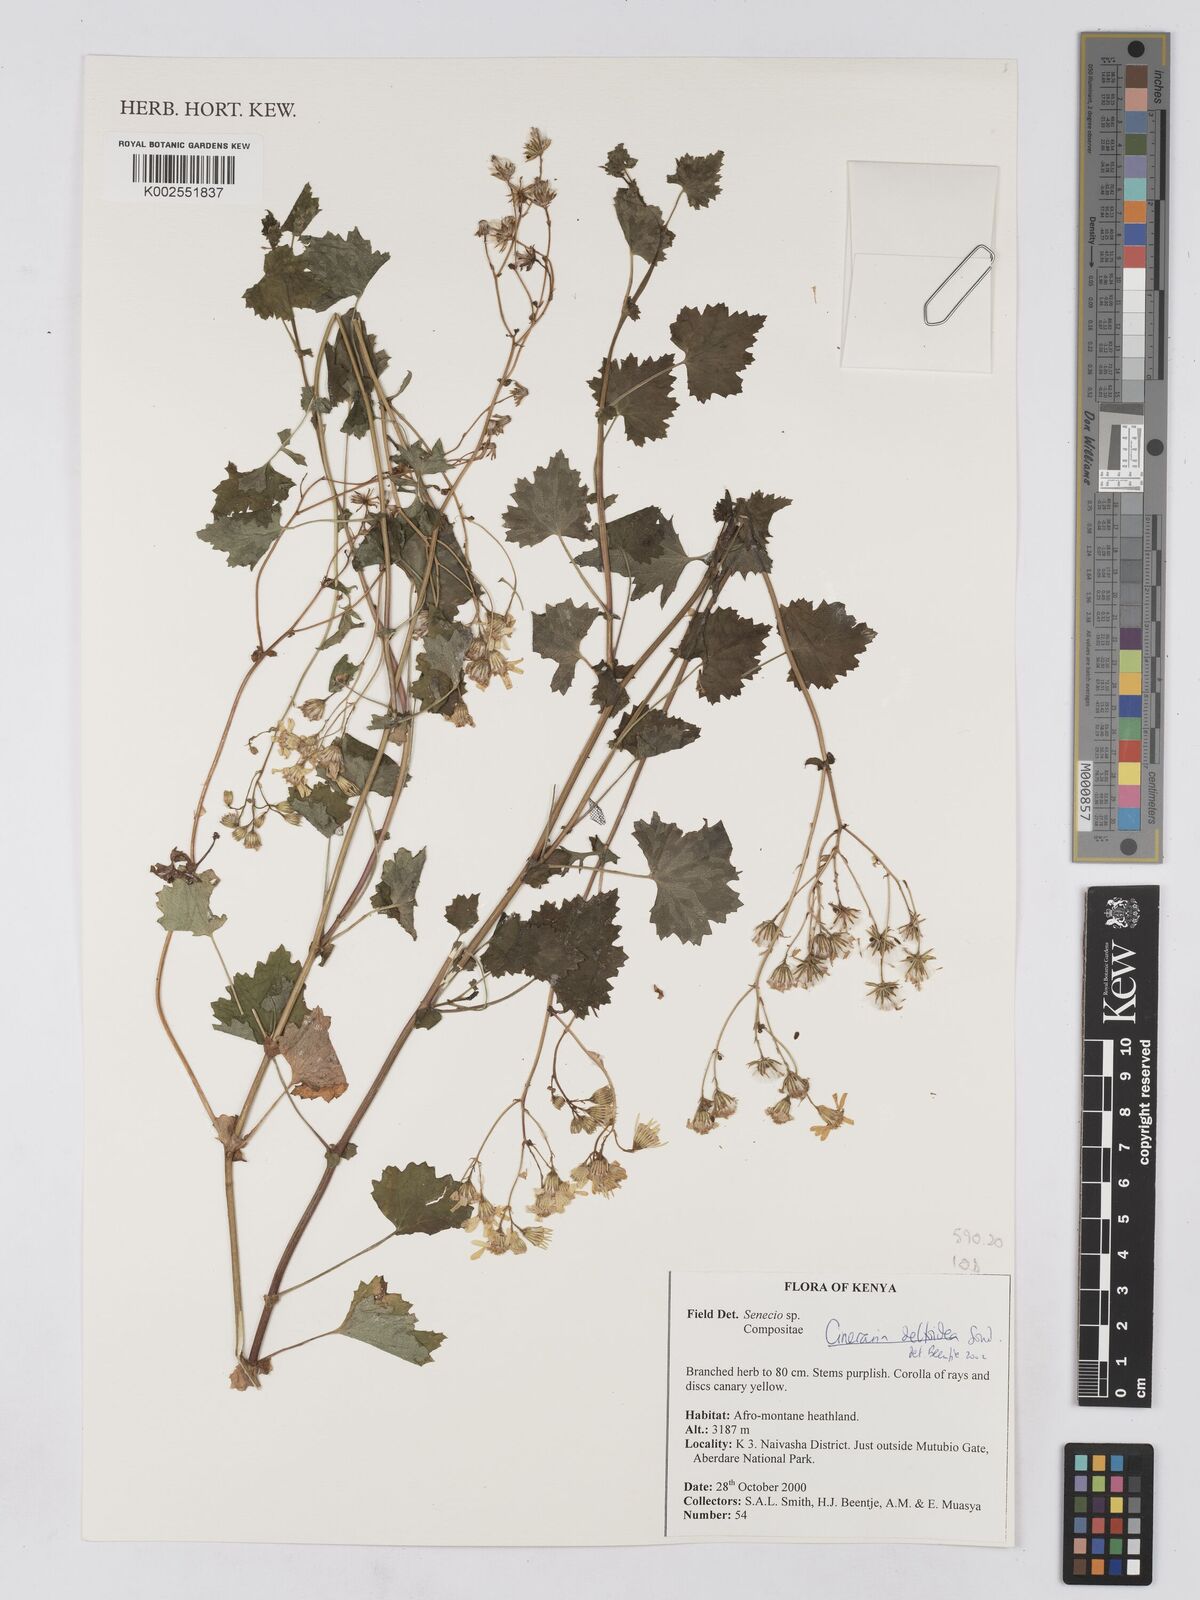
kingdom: Plantae
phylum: Tracheophyta
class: Magnoliopsida
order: Asterales
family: Asteraceae
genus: Cineraria
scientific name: Cineraria deltoidea
